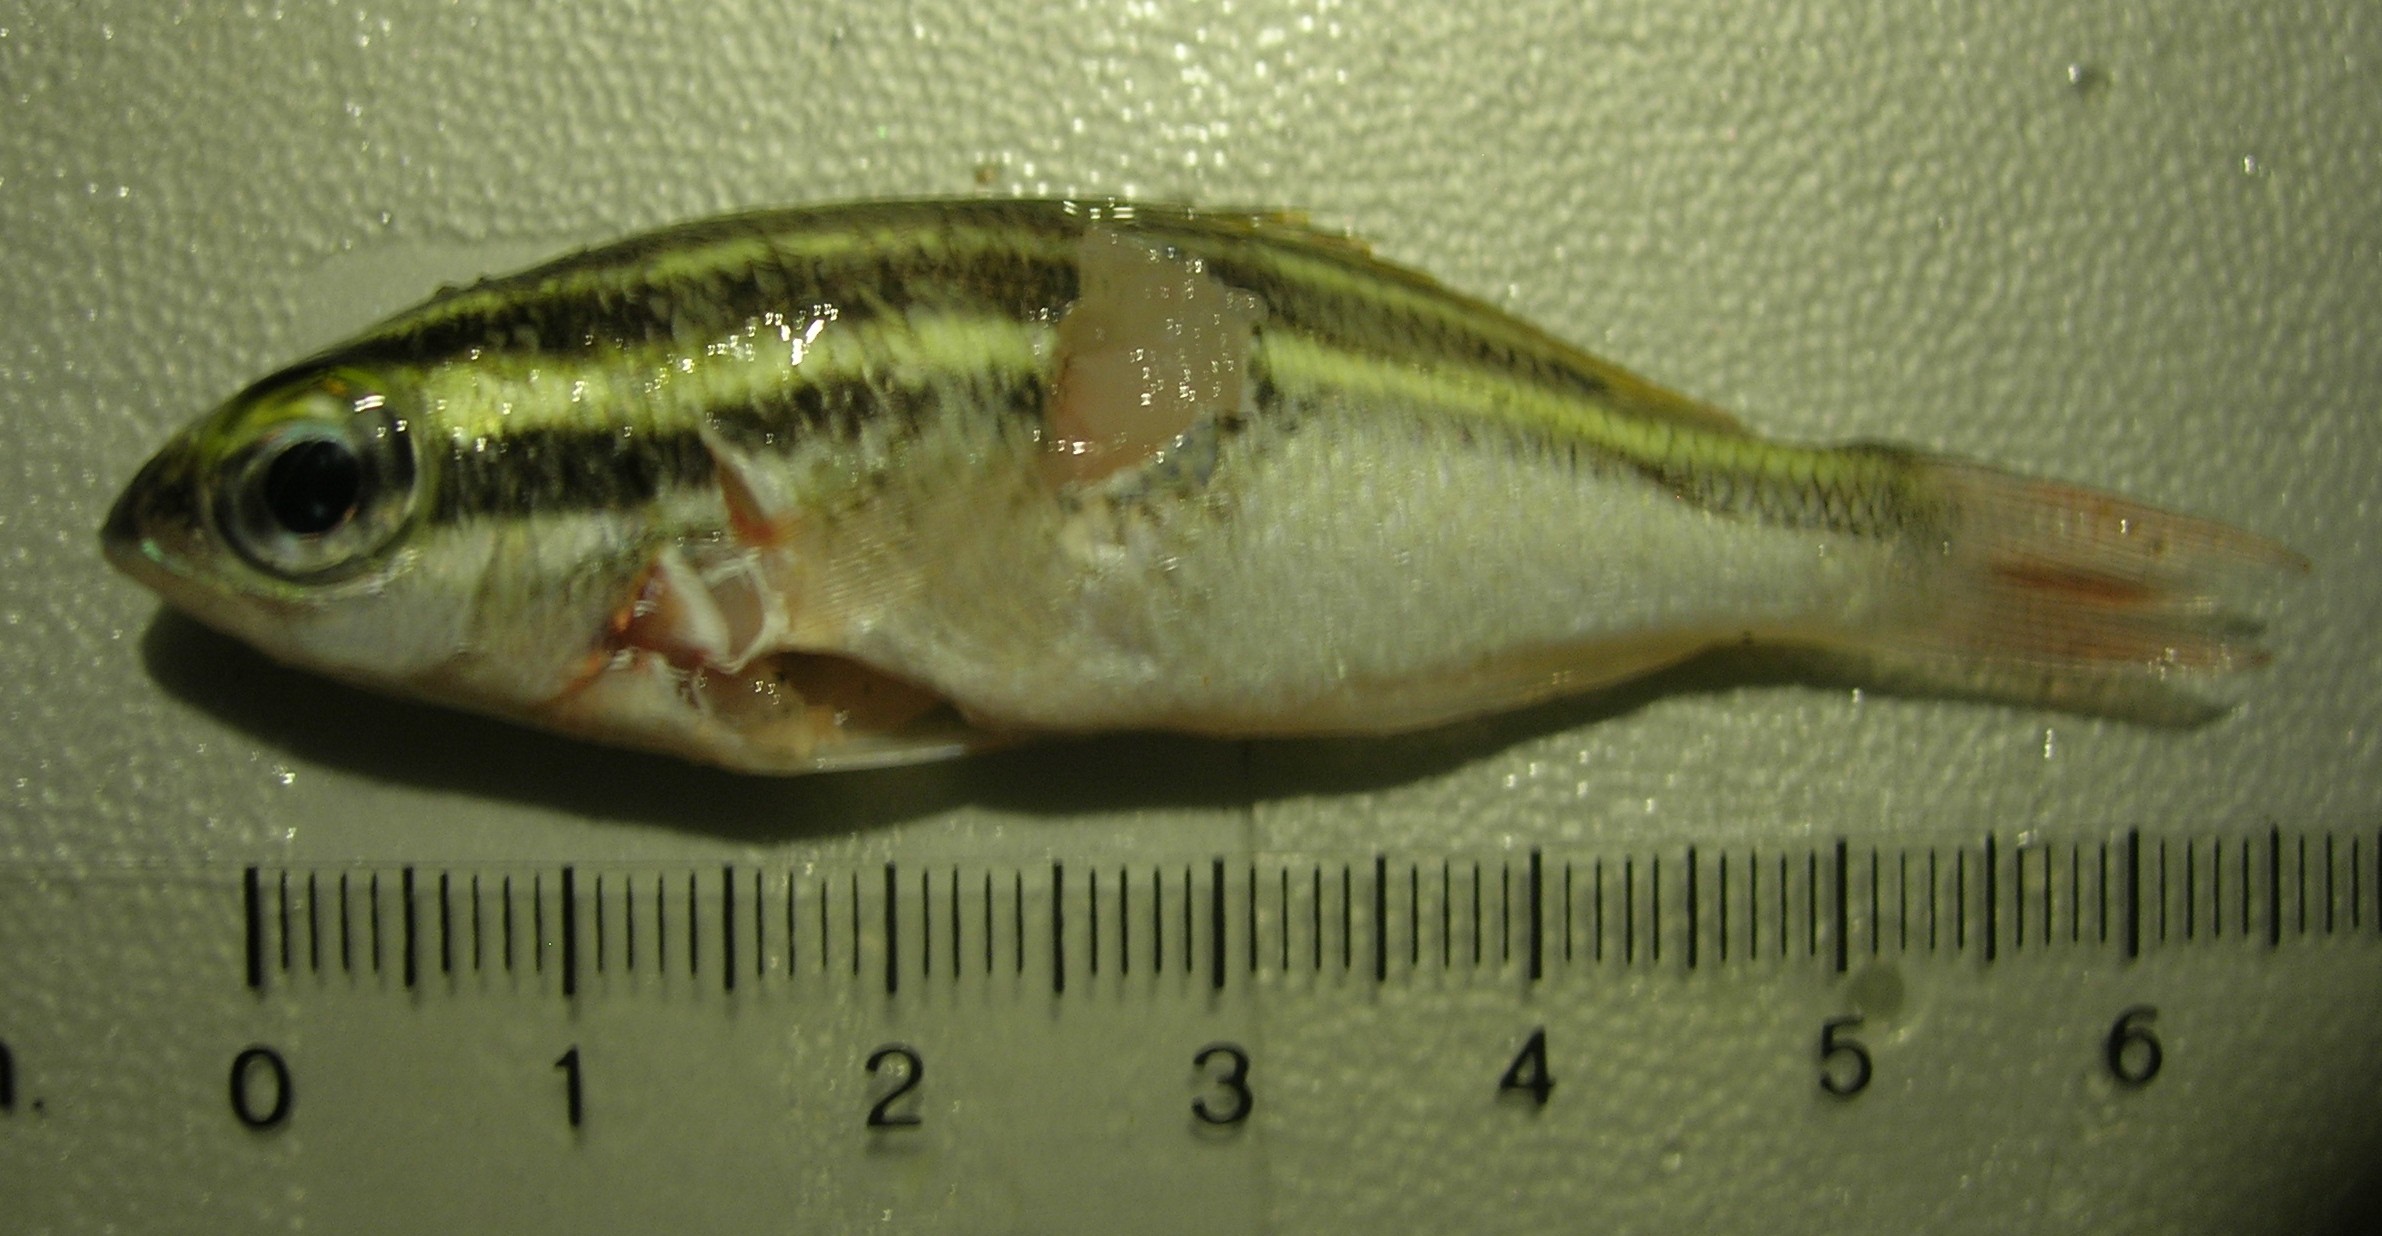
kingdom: Animalia
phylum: Chordata
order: Perciformes
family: Nemipteridae
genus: Scolopsis
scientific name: Scolopsis ghanam
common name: Arabian monocle bream
